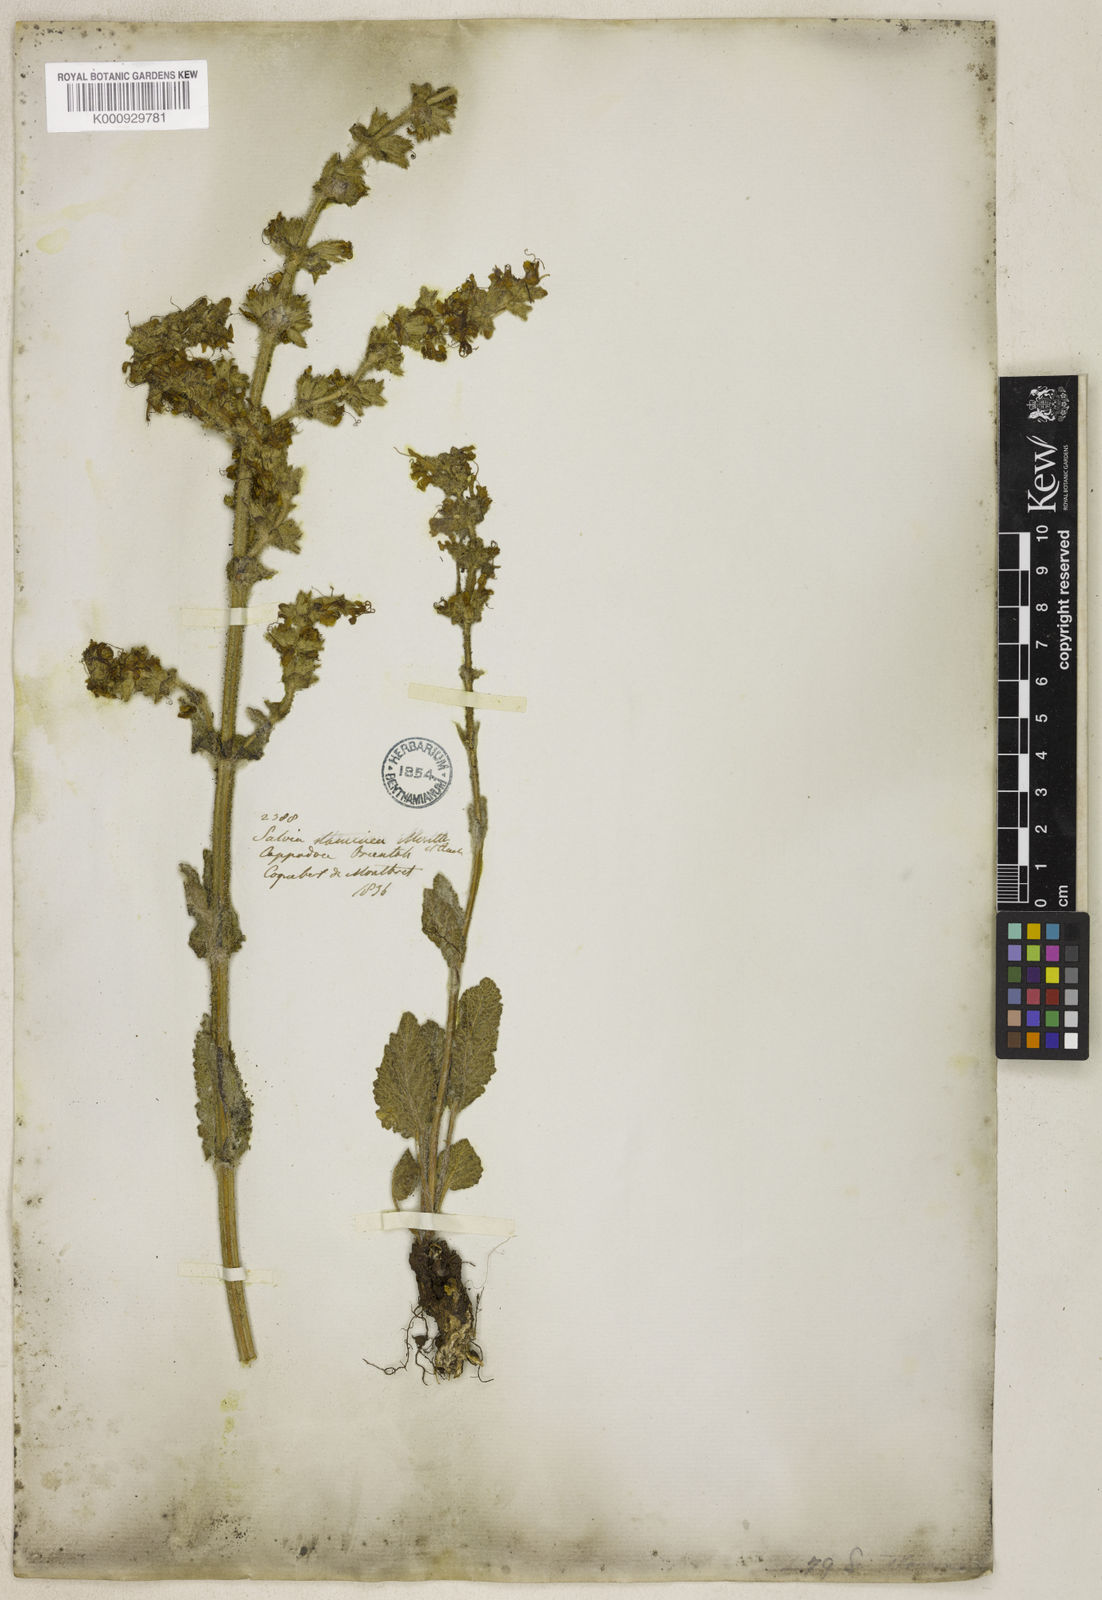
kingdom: Plantae
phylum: Tracheophyta
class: Magnoliopsida
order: Lamiales
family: Lamiaceae
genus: Salvia
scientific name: Salvia staminea
